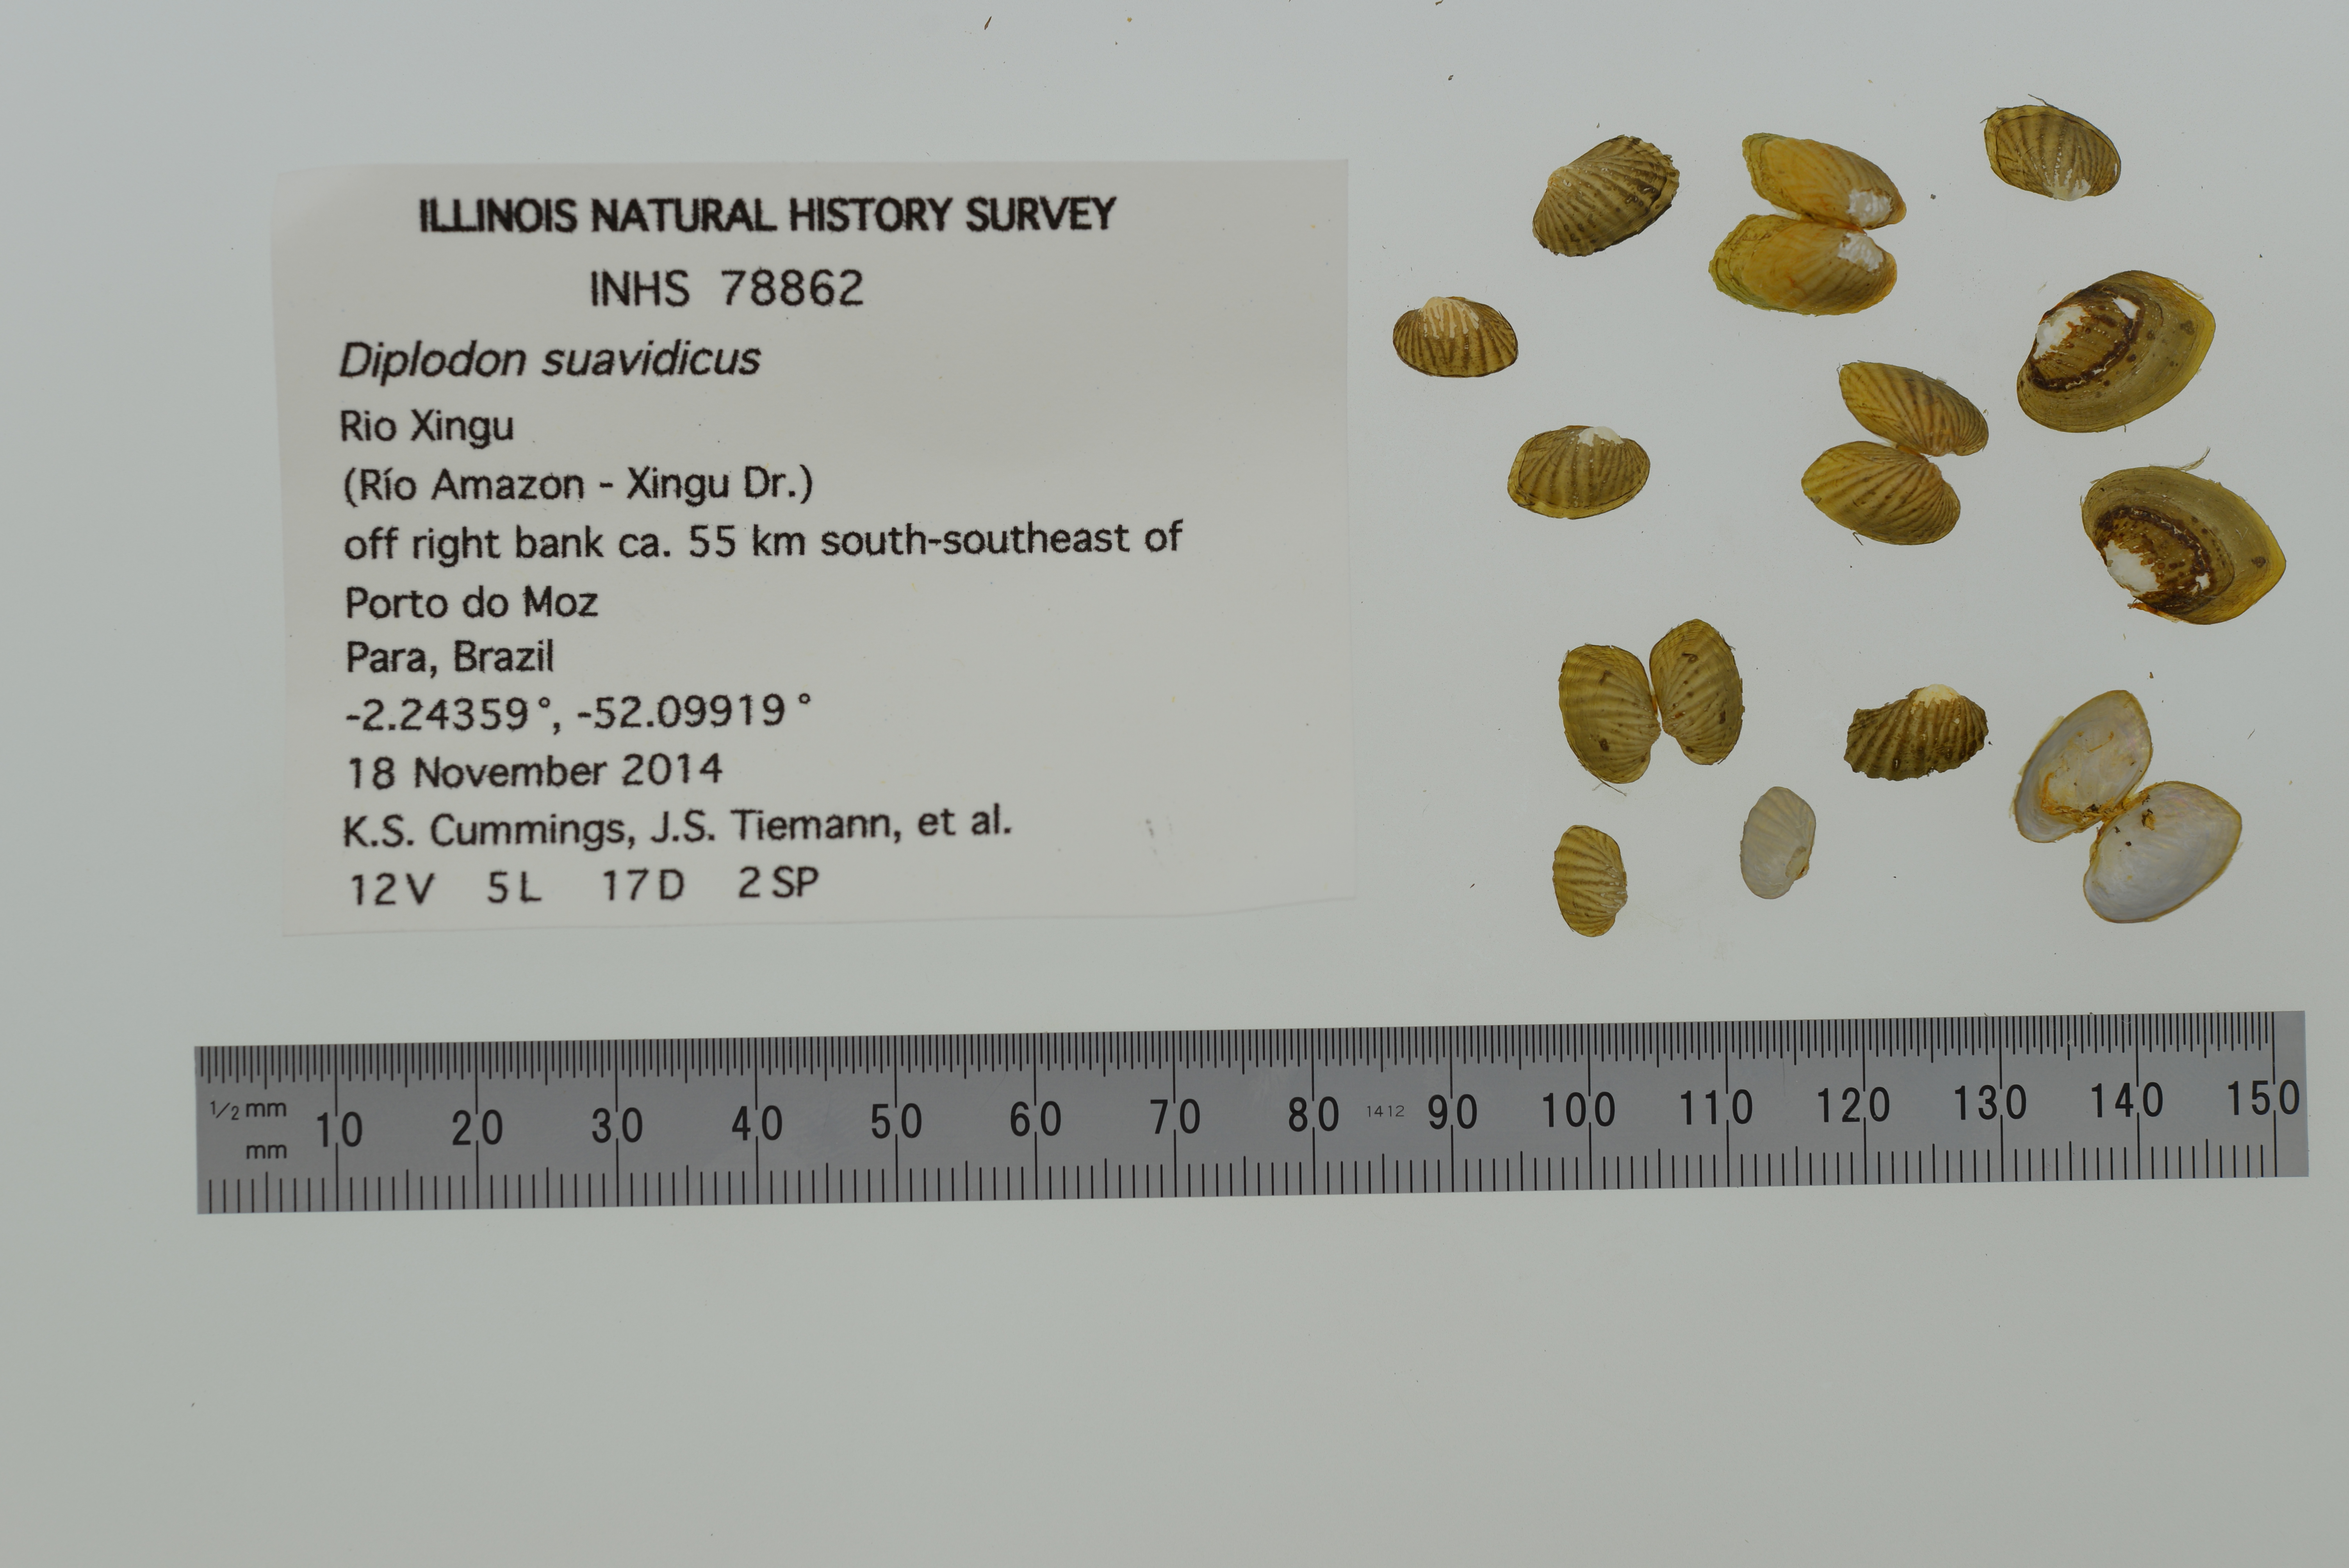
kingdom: Animalia
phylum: Mollusca
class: Bivalvia
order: Unionida
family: Hyriidae
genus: Diplodon
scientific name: Diplodon suavidicus
